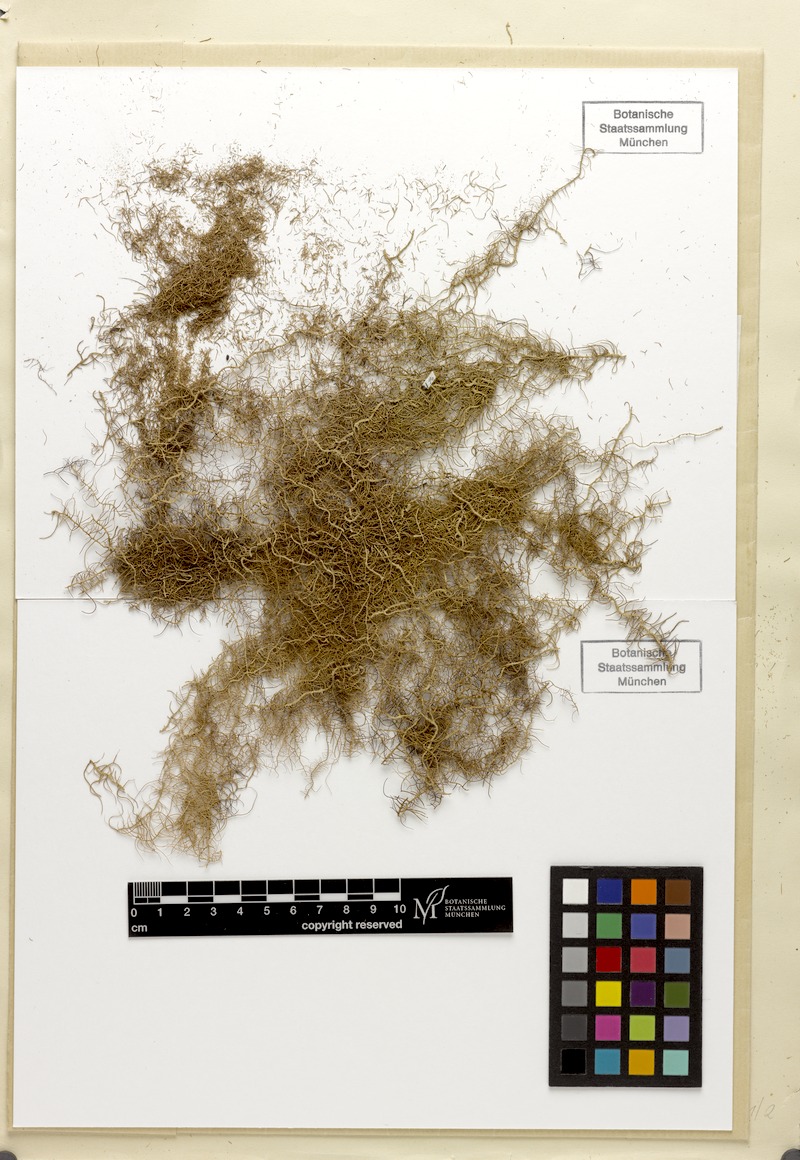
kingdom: Fungi
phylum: Ascomycota
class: Lecanoromycetes
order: Lecanorales
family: Parmeliaceae
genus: Eumitria
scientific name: Eumitria pectinata
